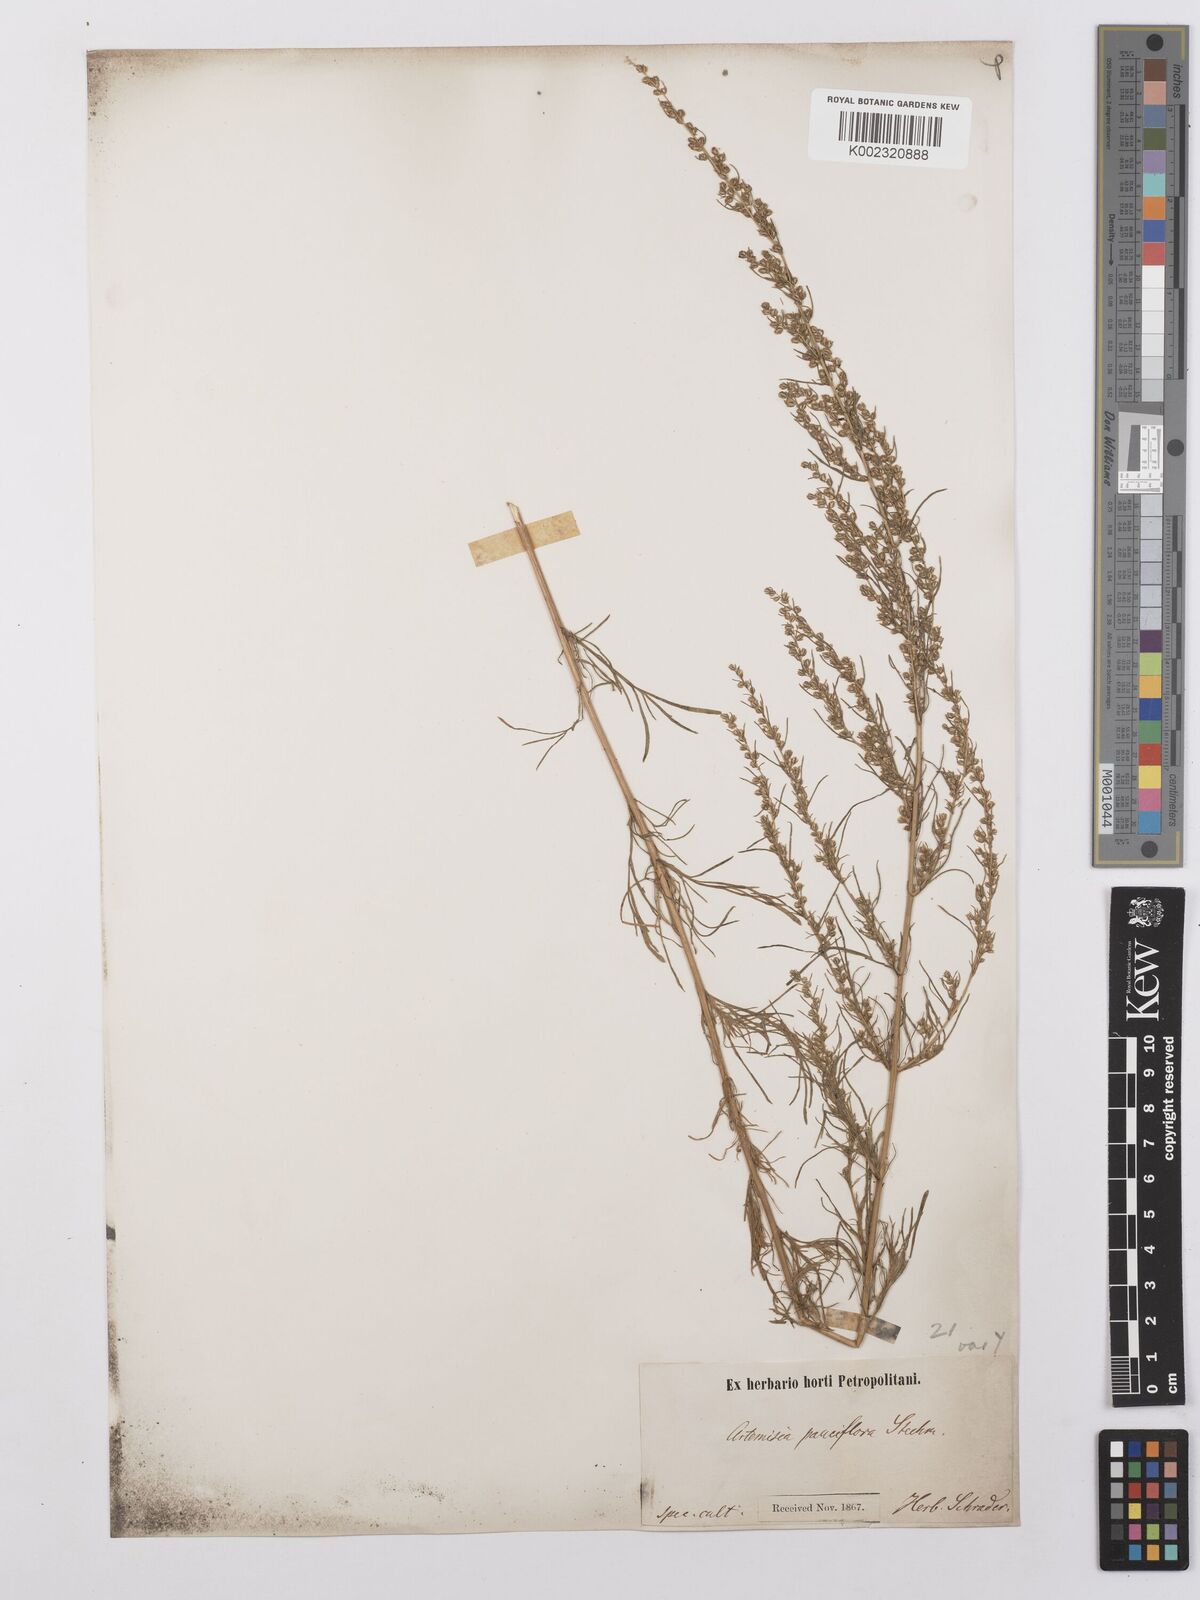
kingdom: Plantae
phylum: Tracheophyta
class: Magnoliopsida
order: Asterales
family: Asteraceae
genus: Artemisia
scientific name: Artemisia maritima
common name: Wormseed
